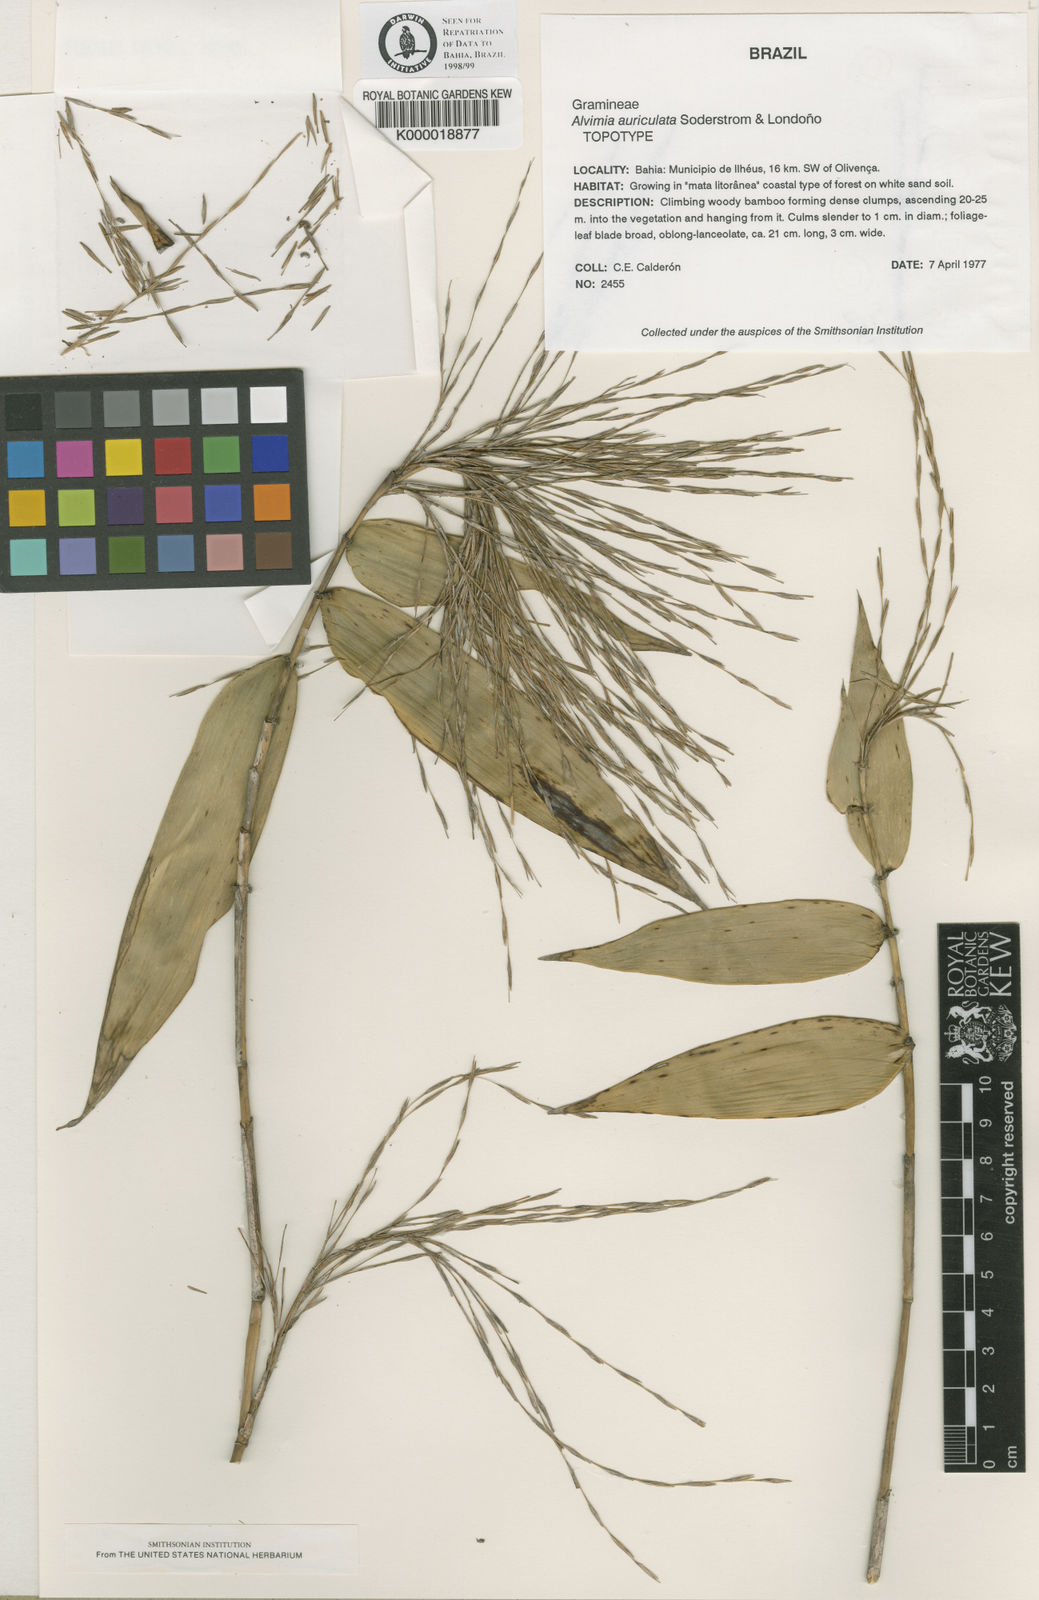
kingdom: Plantae
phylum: Tracheophyta
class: Liliopsida
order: Poales
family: Poaceae
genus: Alvimia
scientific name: Alvimia
